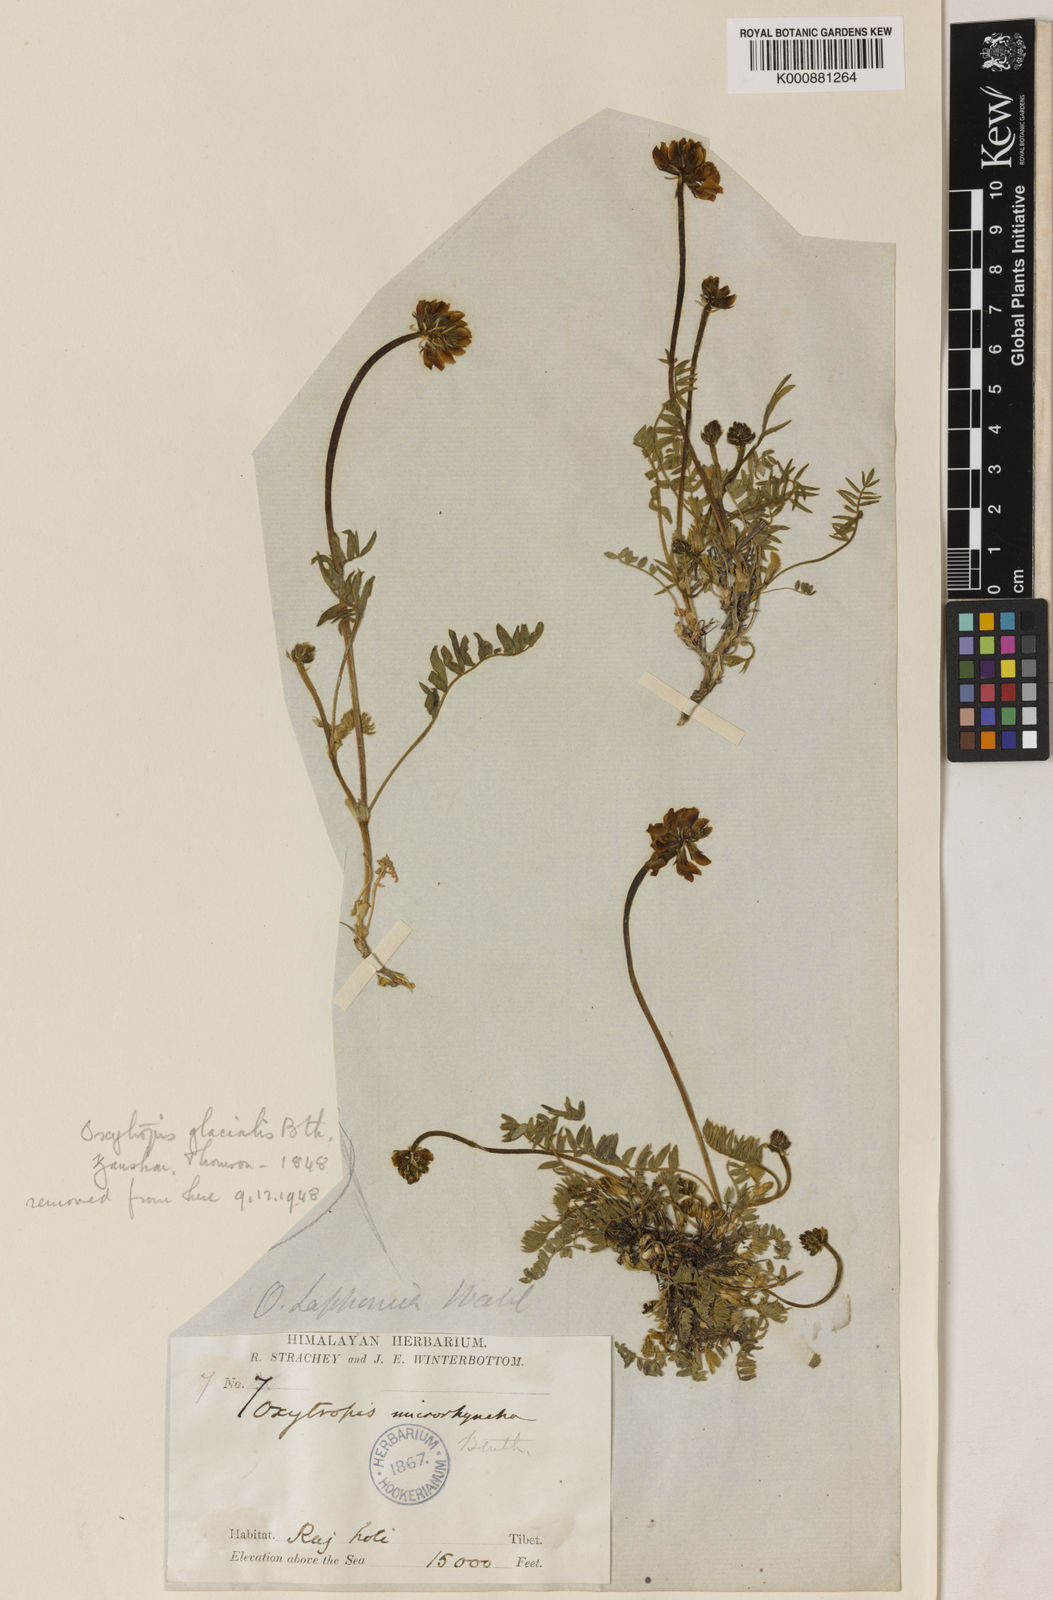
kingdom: Plantae
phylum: Tracheophyta
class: Magnoliopsida
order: Fabales
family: Fabaceae
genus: Oxytropis
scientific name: Oxytropis lapponica
